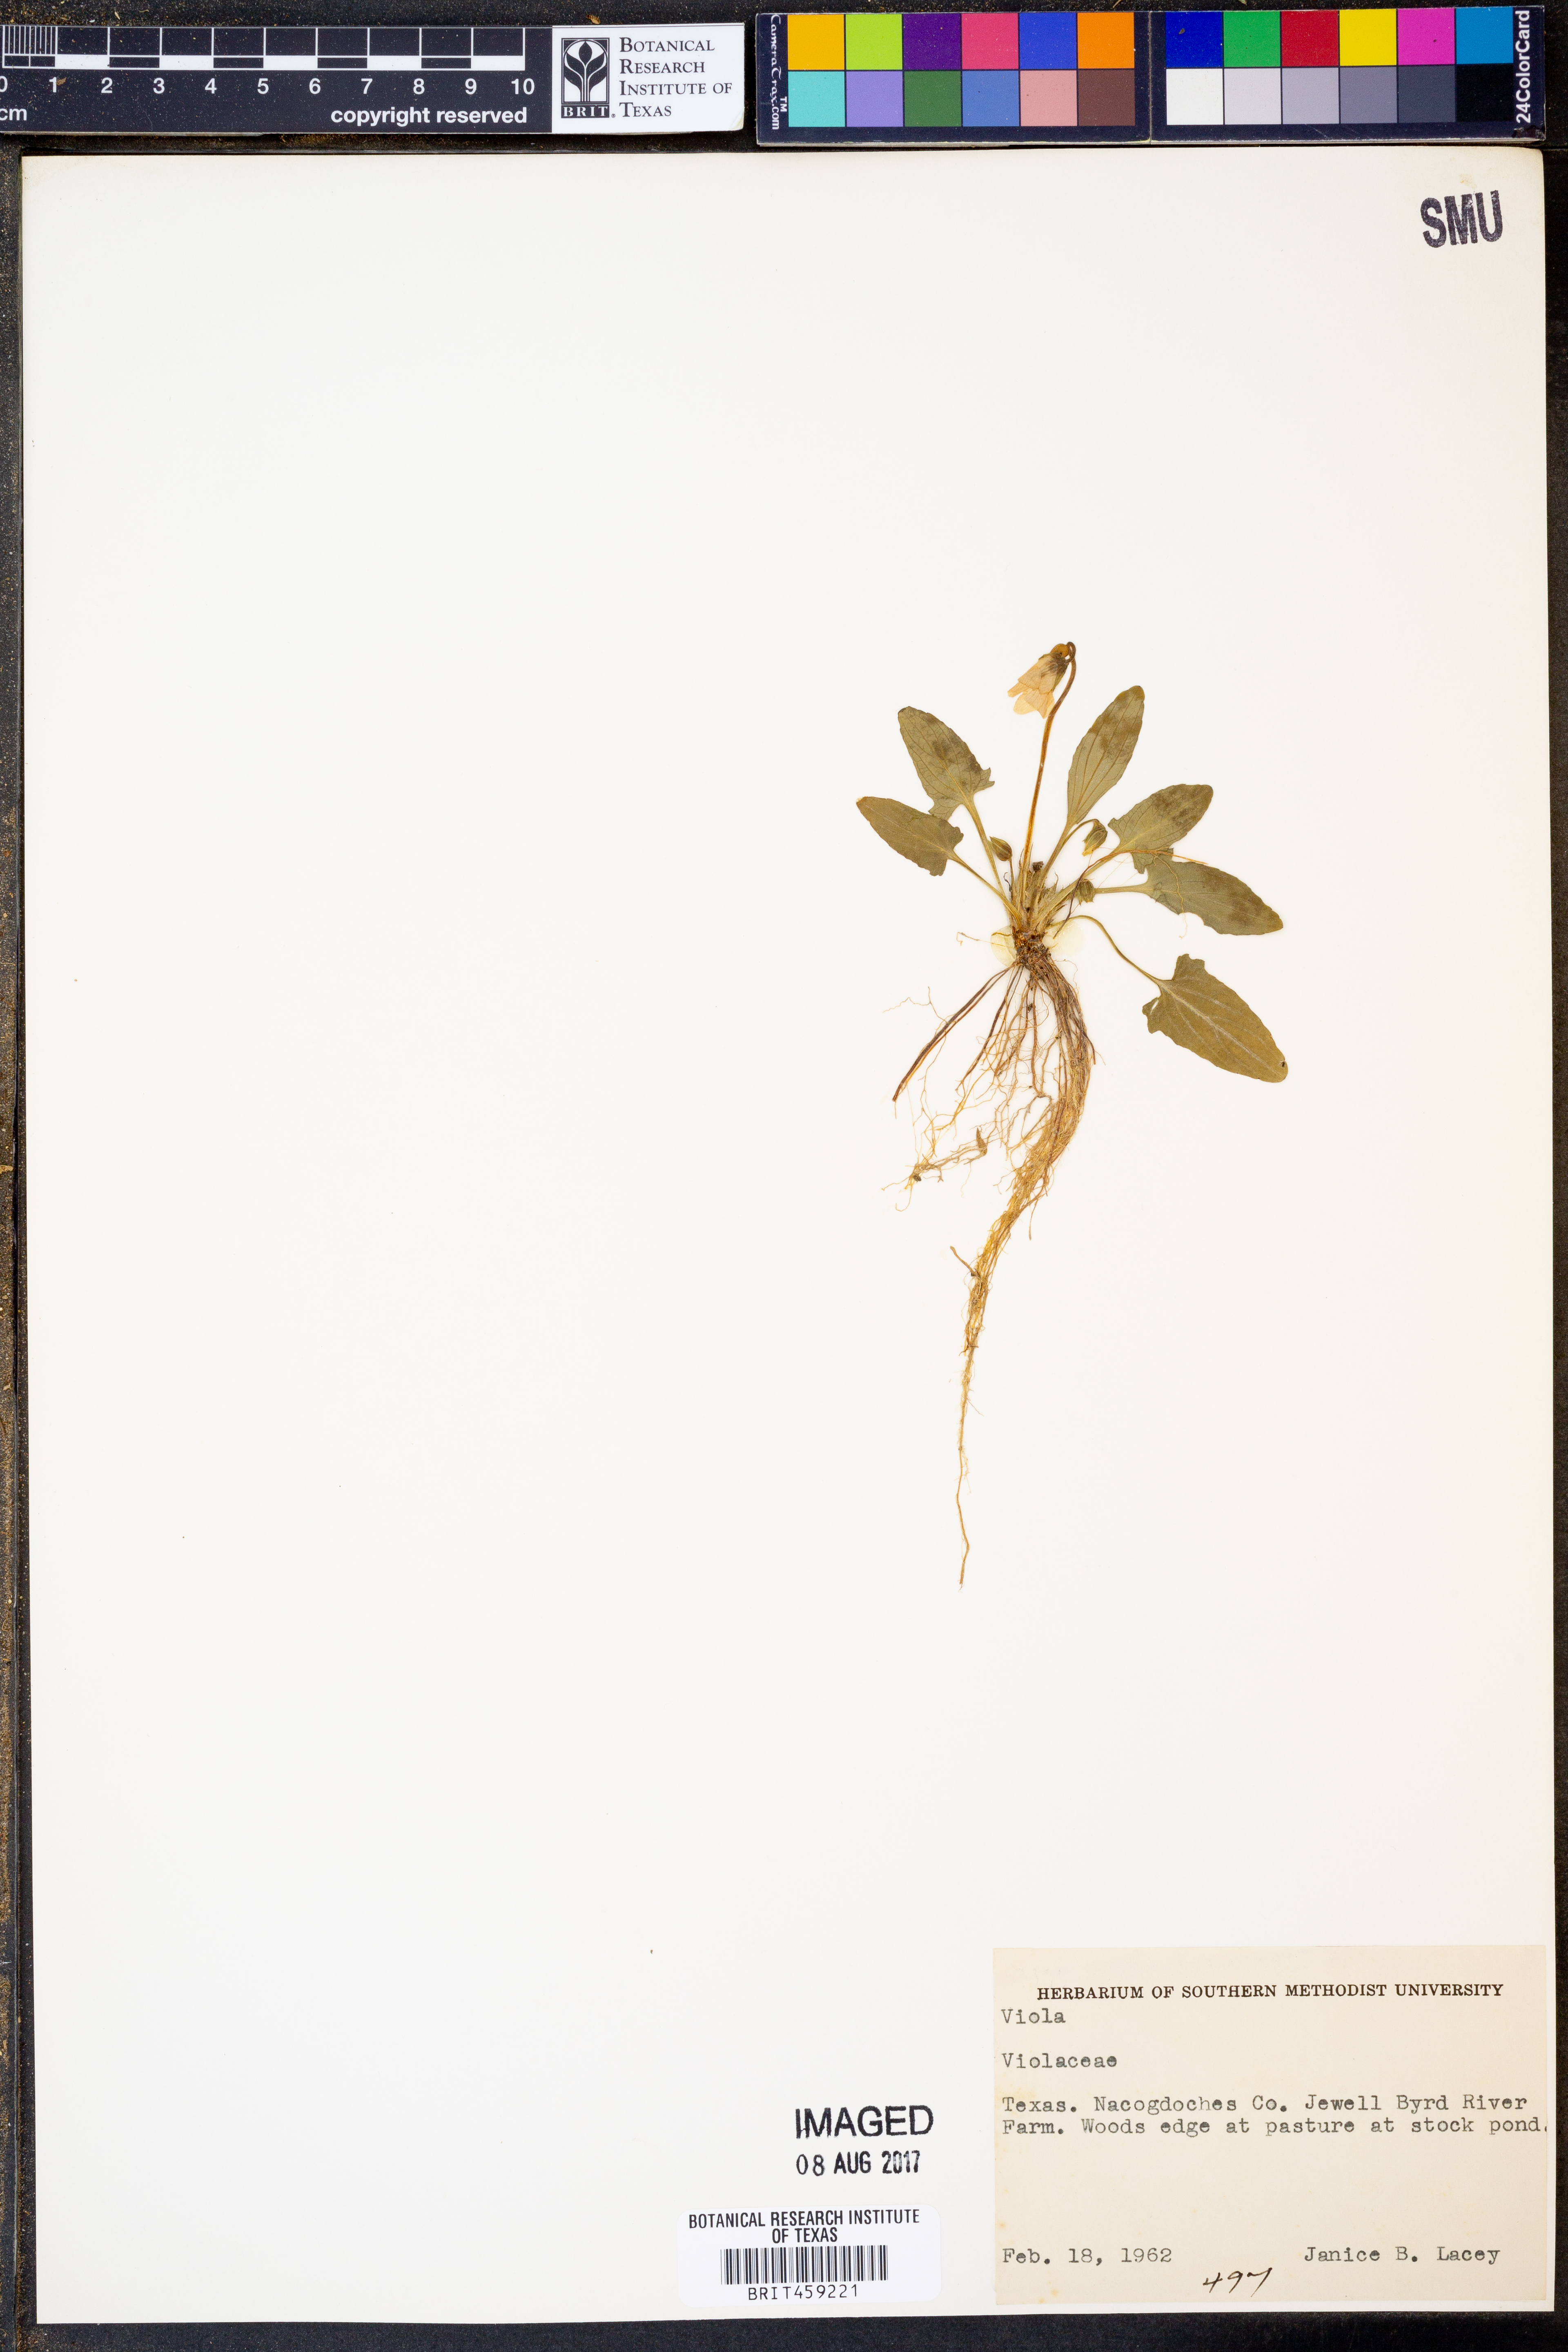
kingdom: Plantae
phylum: Tracheophyta
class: Magnoliopsida
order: Malpighiales
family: Violaceae
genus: Viola
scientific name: Viola
